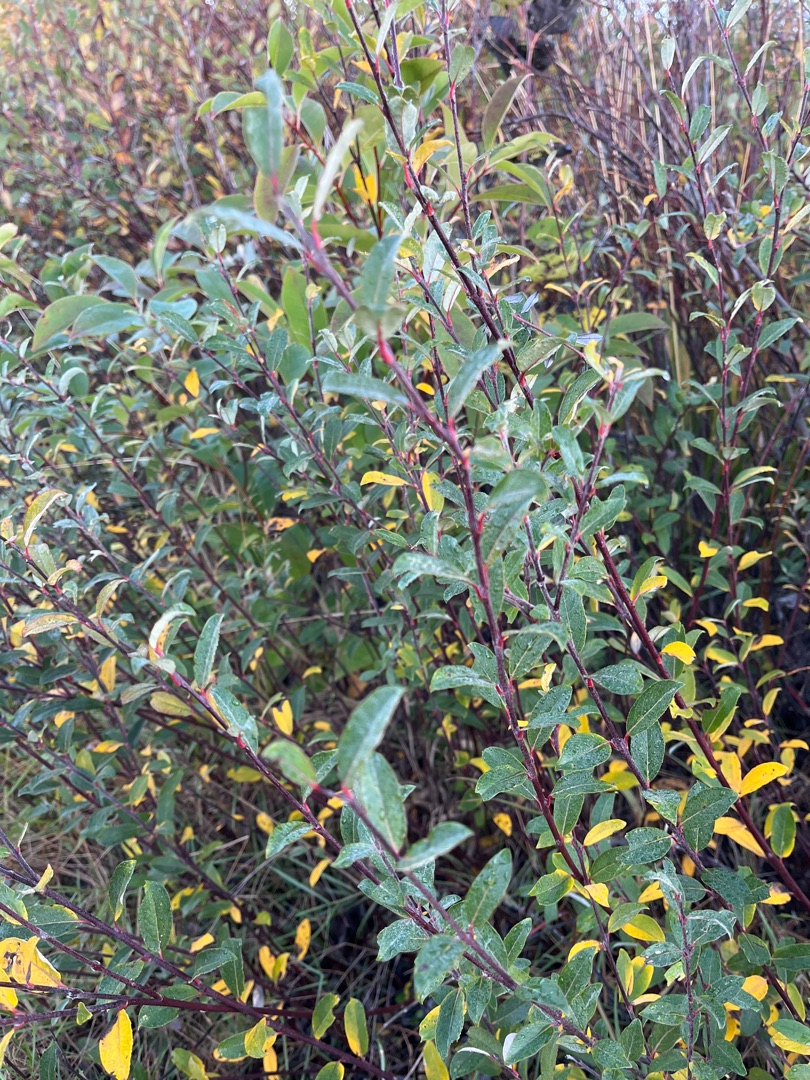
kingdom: Plantae
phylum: Tracheophyta
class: Magnoliopsida
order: Malpighiales
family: Salicaceae
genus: Salix
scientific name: Salix repens
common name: Krybende pil
